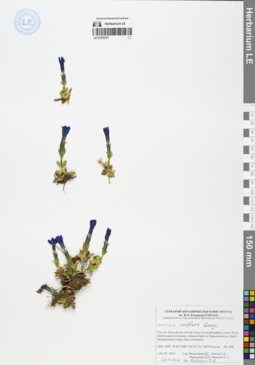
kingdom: Plantae
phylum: Tracheophyta
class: Magnoliopsida
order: Gentianales
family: Gentianaceae
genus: Gentiana
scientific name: Gentiana uniflora
